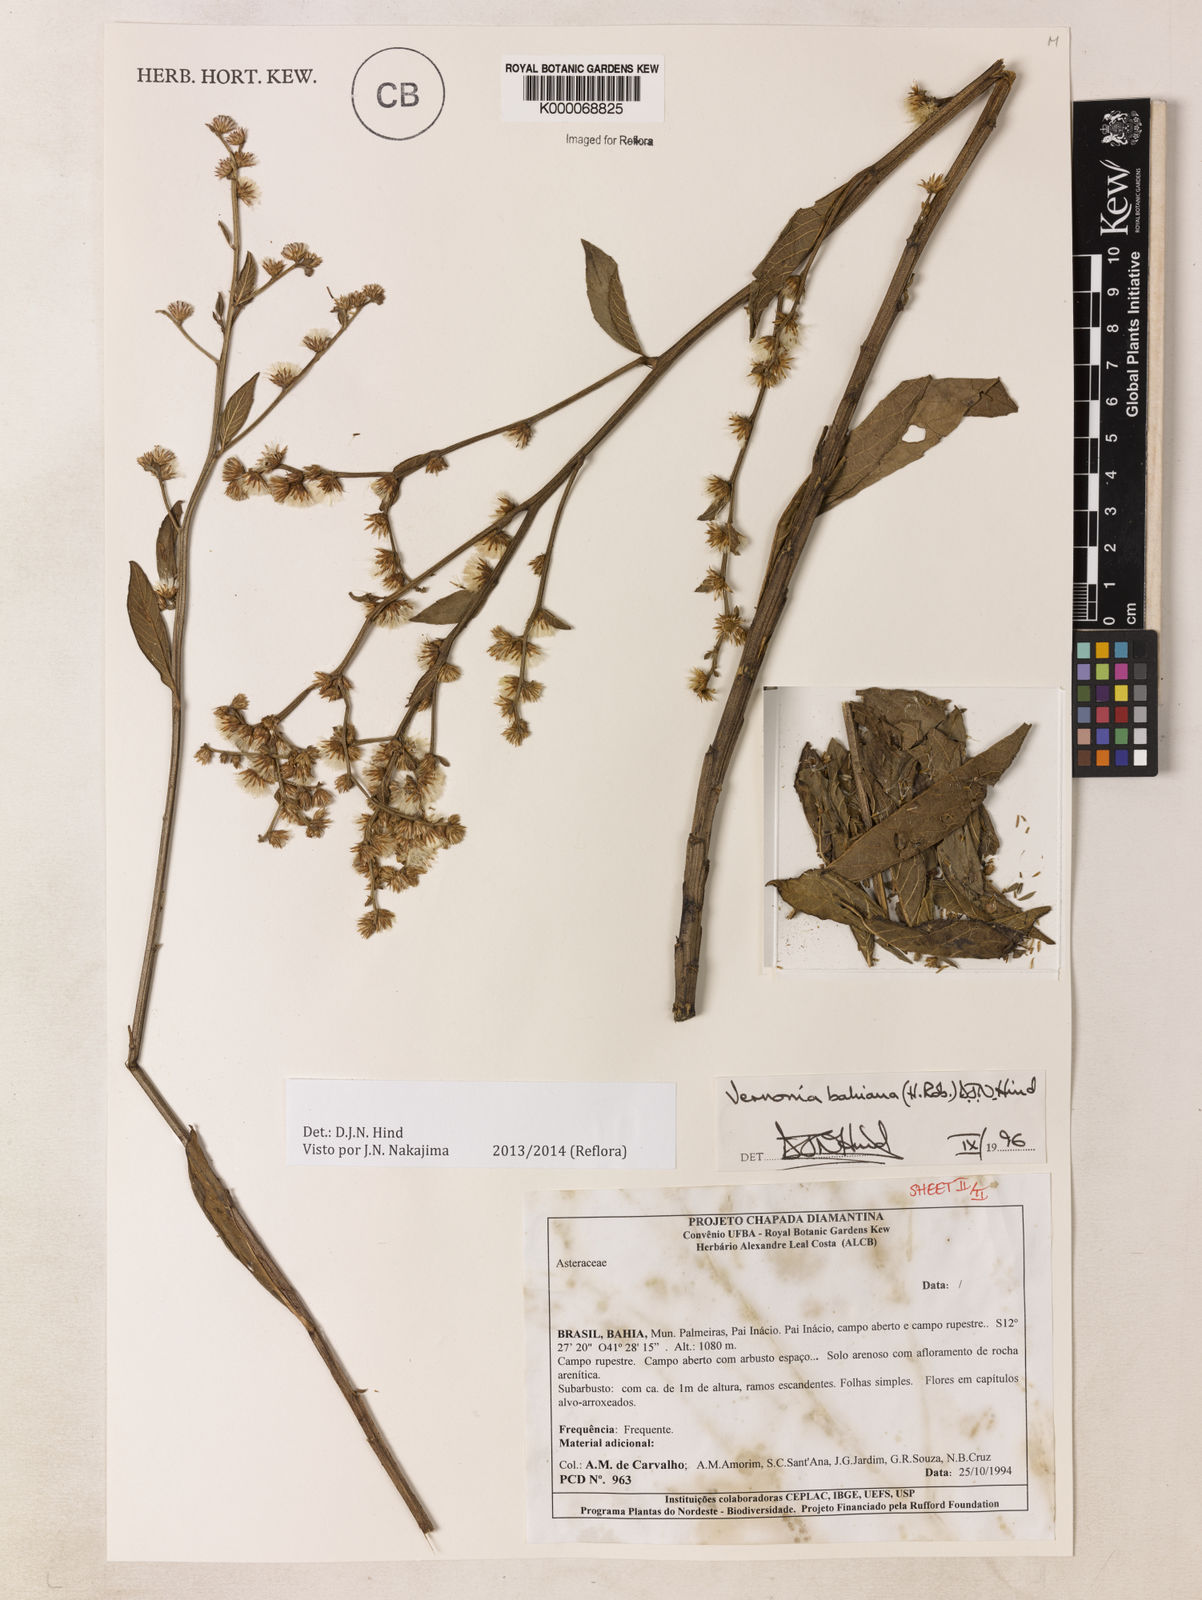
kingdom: Plantae
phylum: Tracheophyta
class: Magnoliopsida
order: Asterales
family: Asteraceae
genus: Lepidaploa
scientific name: Lepidaploa bahiana
